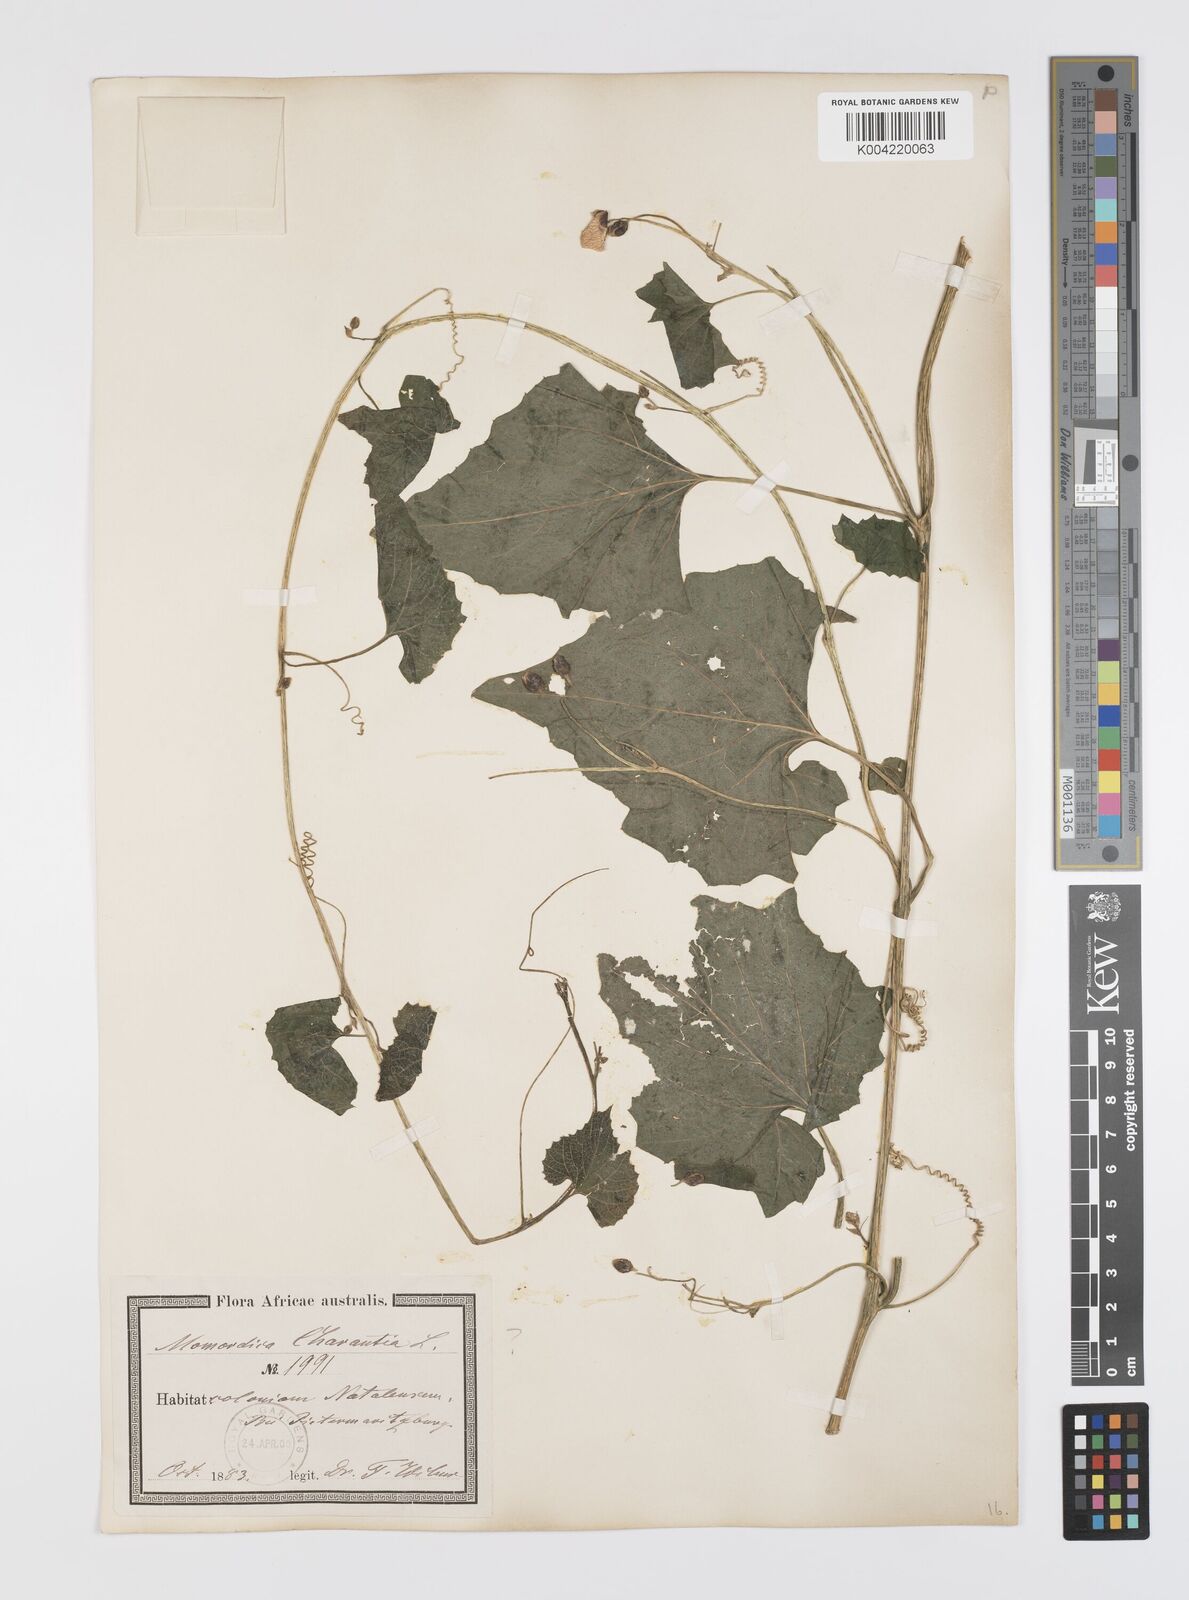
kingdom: Plantae
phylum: Tracheophyta
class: Magnoliopsida
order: Cucurbitales
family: Cucurbitaceae
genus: Momordica
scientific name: Momordica foetida
